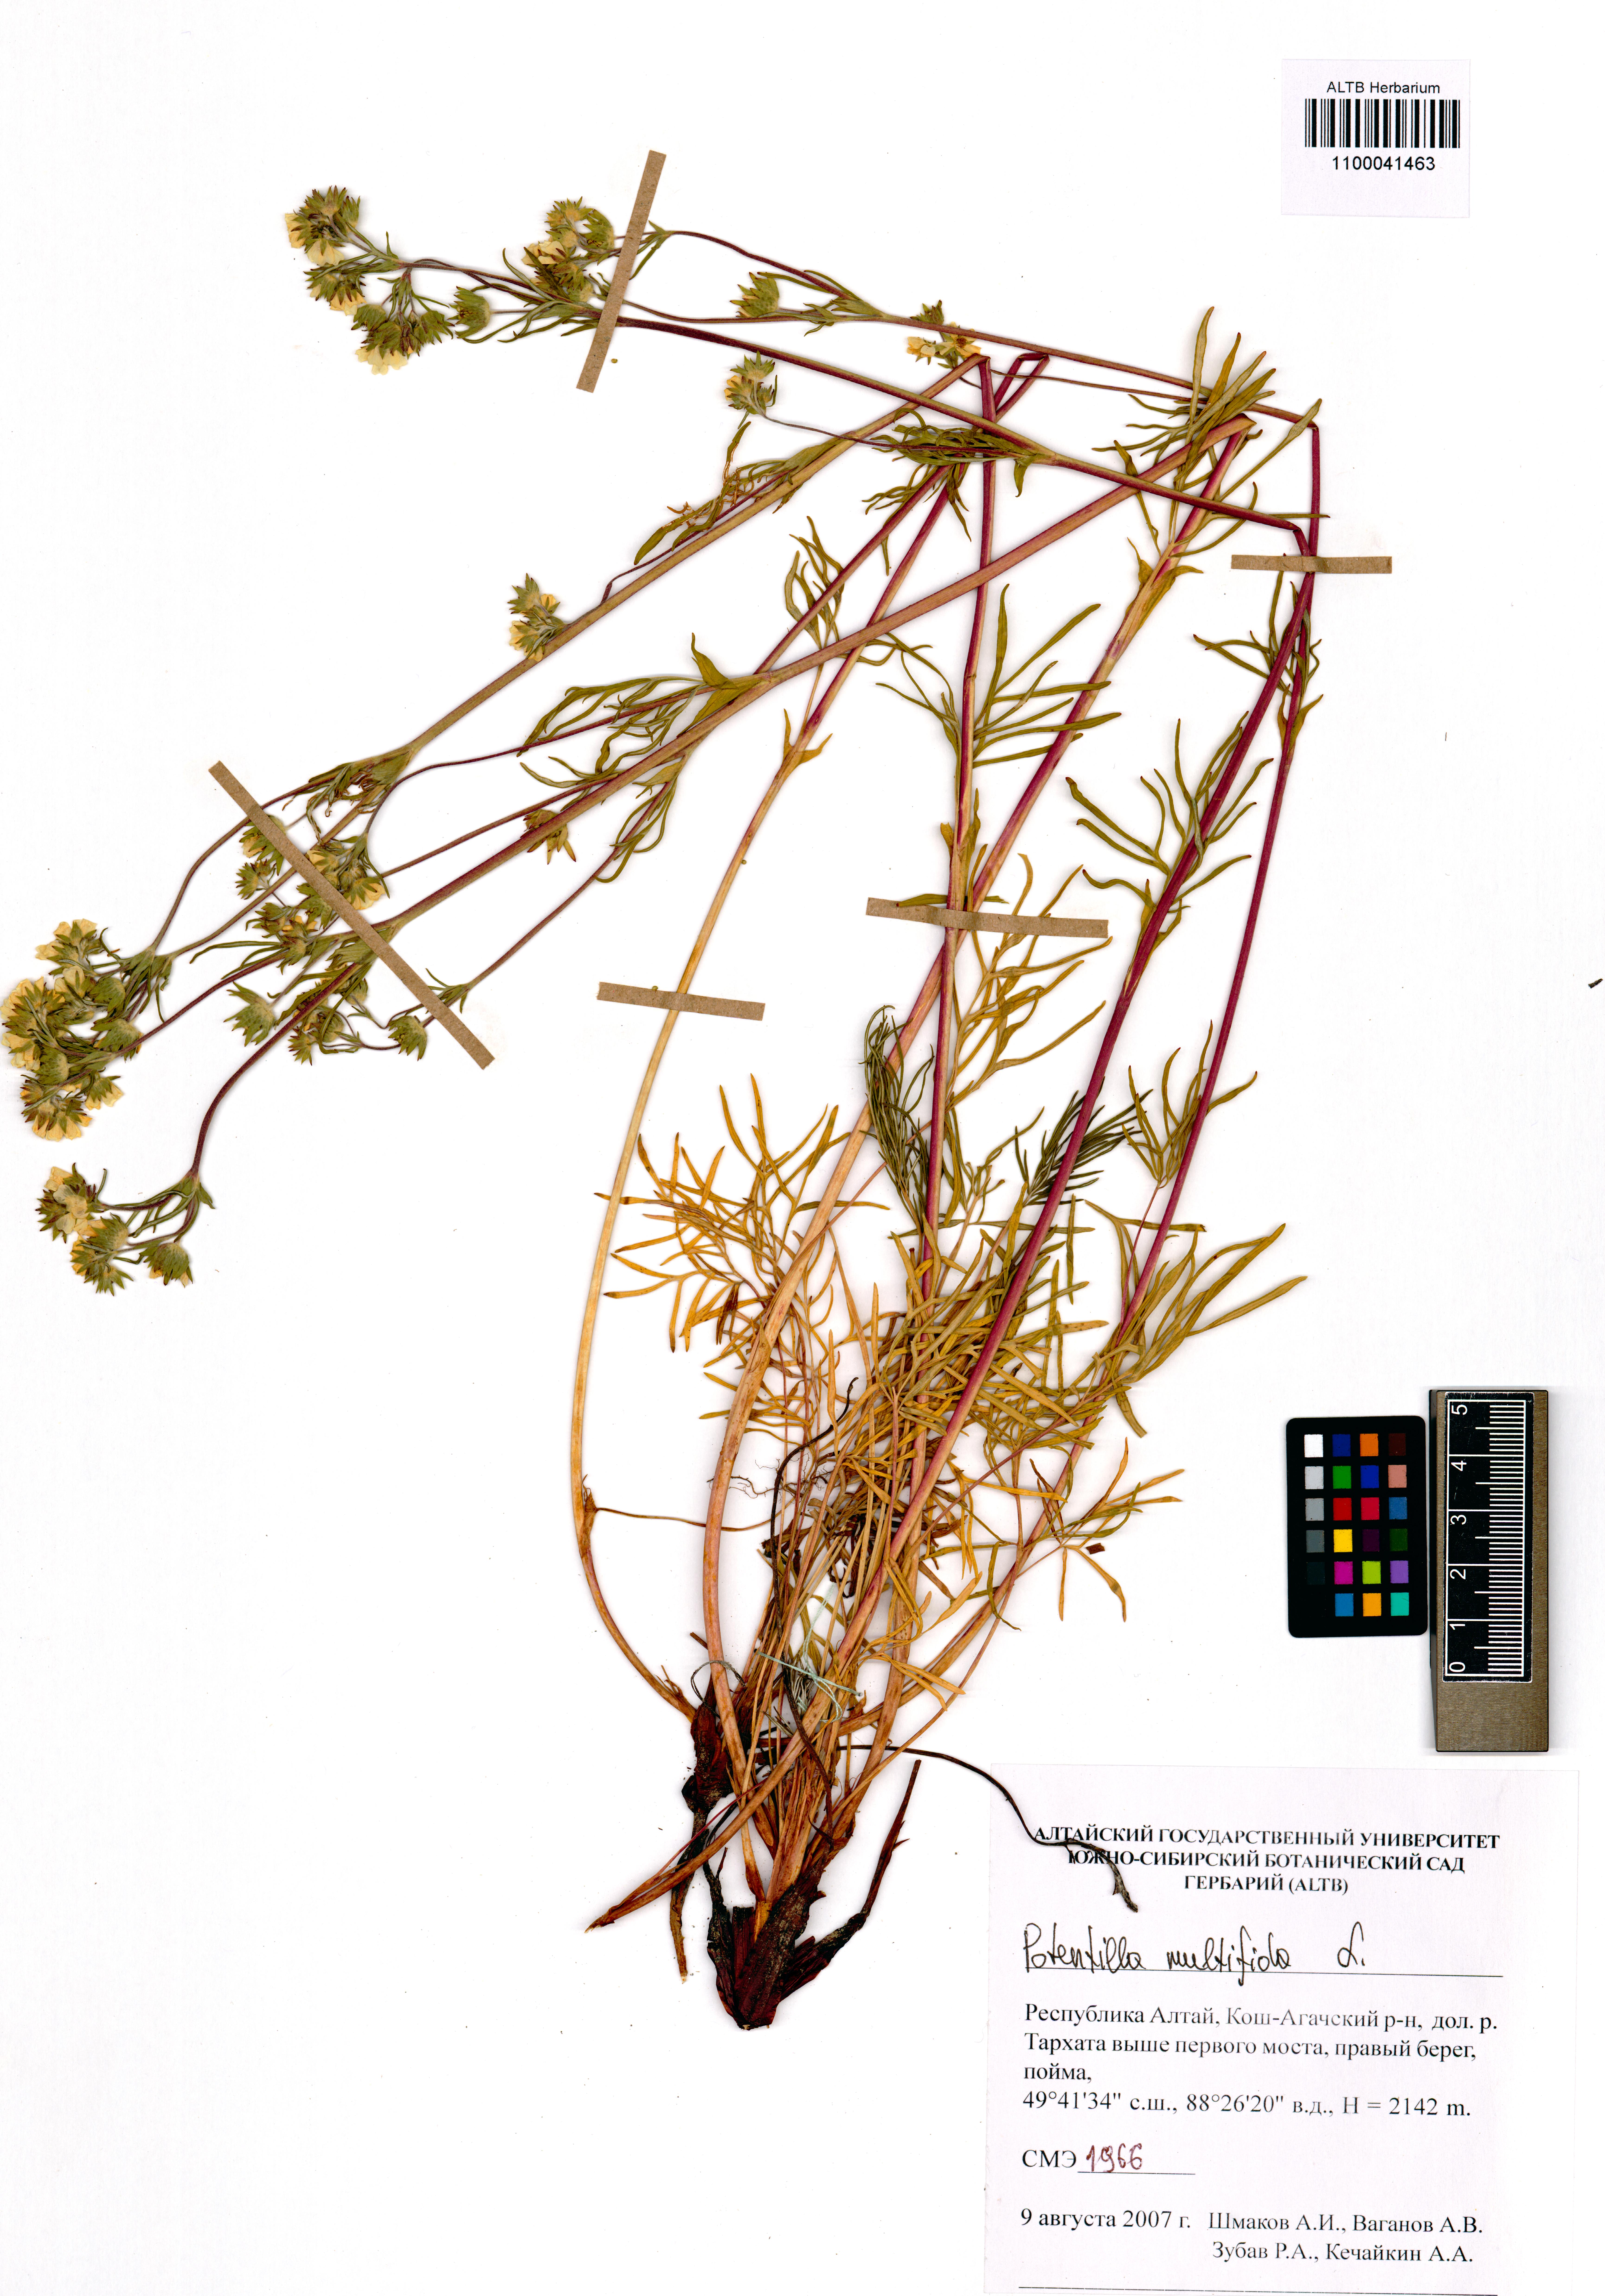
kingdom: Plantae
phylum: Tracheophyta
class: Magnoliopsida
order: Rosales
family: Rosaceae
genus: Potentilla
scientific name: Potentilla multifida
